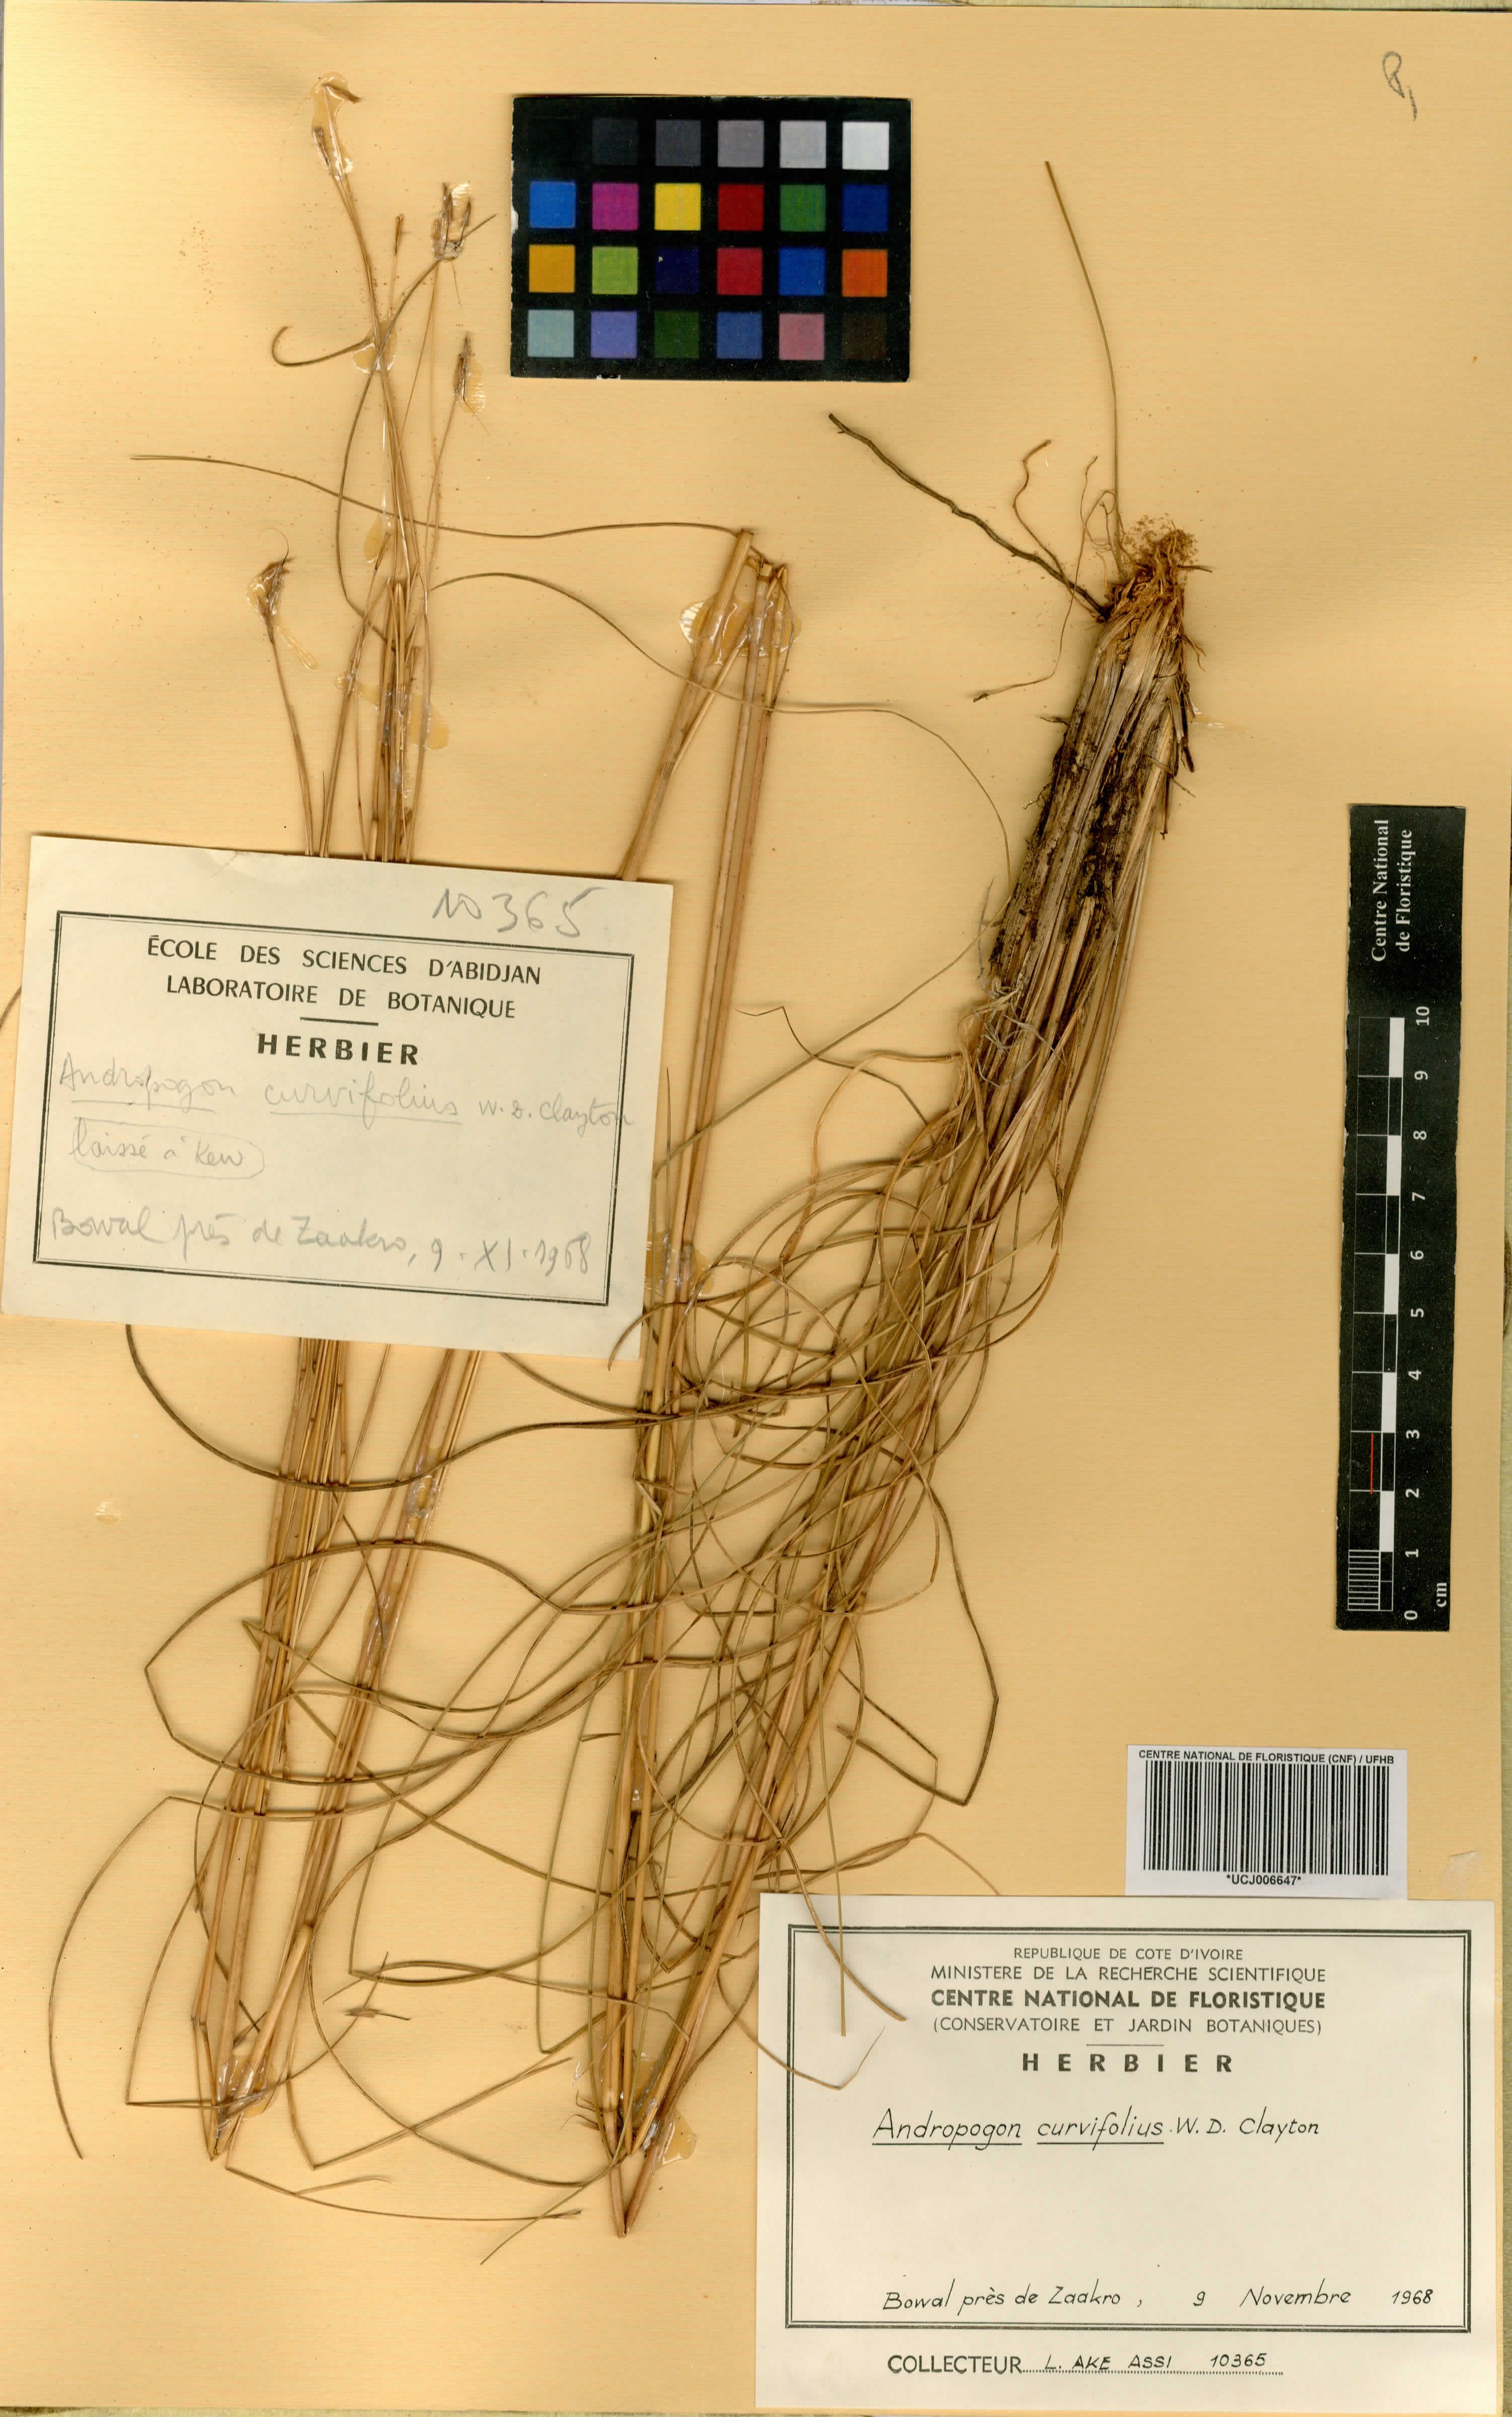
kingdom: Plantae
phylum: Tracheophyta
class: Liliopsida
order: Poales
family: Poaceae
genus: Andropogon
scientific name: Andropogon curvifolius
